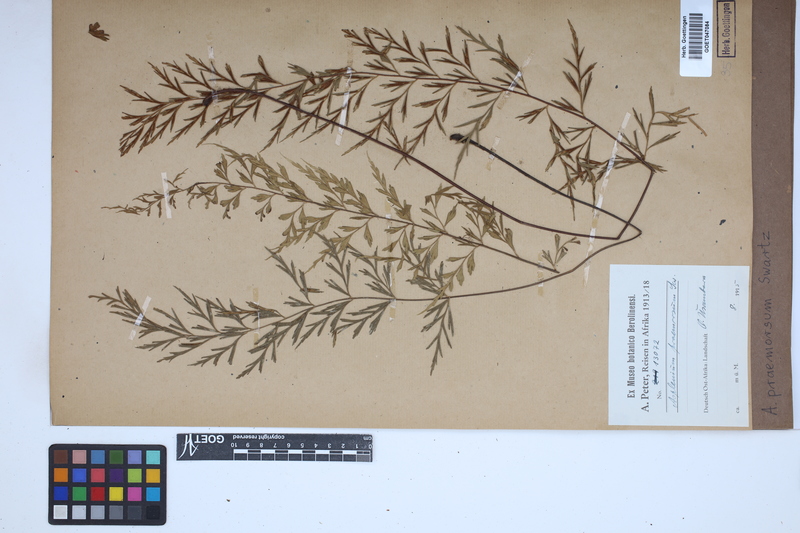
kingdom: Plantae
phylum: Tracheophyta
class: Polypodiopsida
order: Polypodiales
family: Aspleniaceae
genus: Asplenium
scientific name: Asplenium praemorsum
